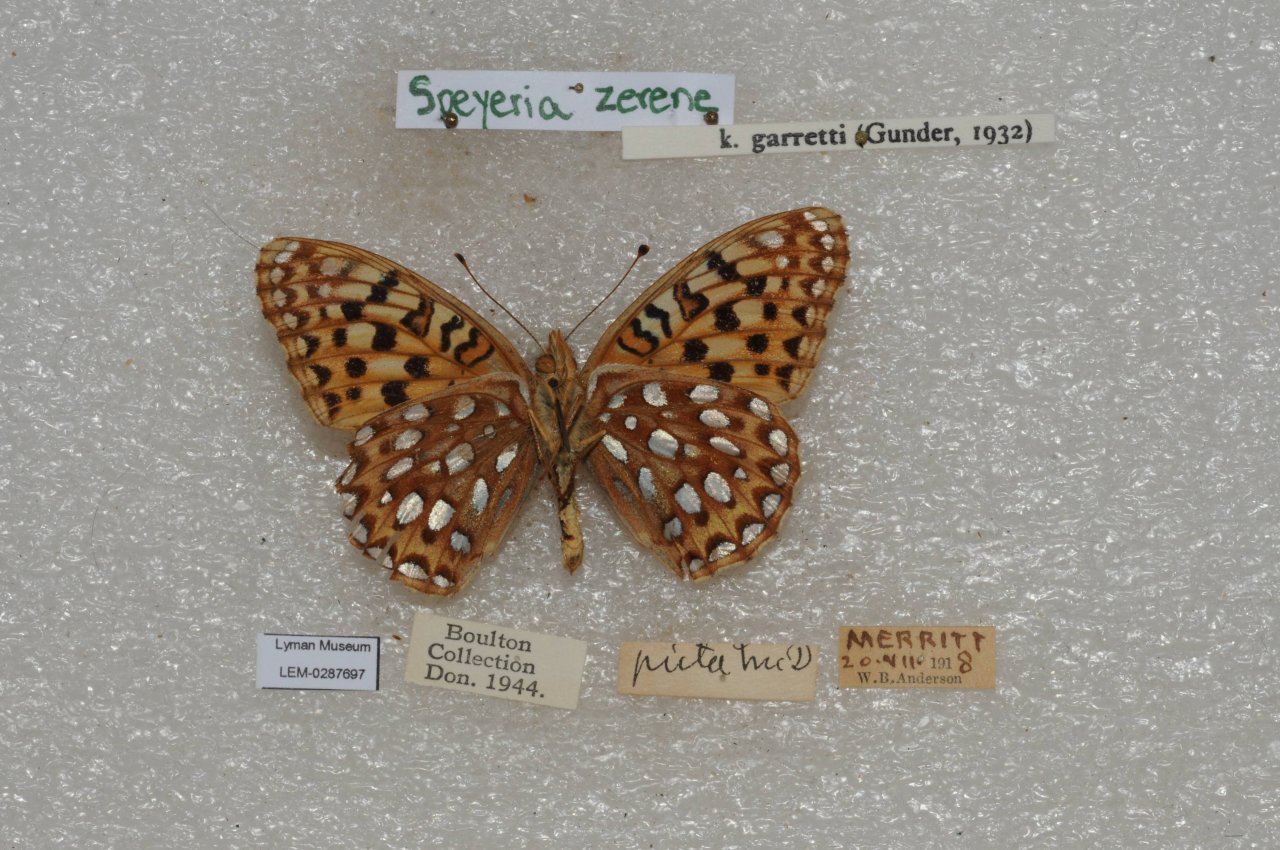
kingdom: Animalia
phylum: Arthropoda
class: Insecta
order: Lepidoptera
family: Nymphalidae
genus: Speyeria
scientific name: Speyeria zerene
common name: Zerene Fritillary
